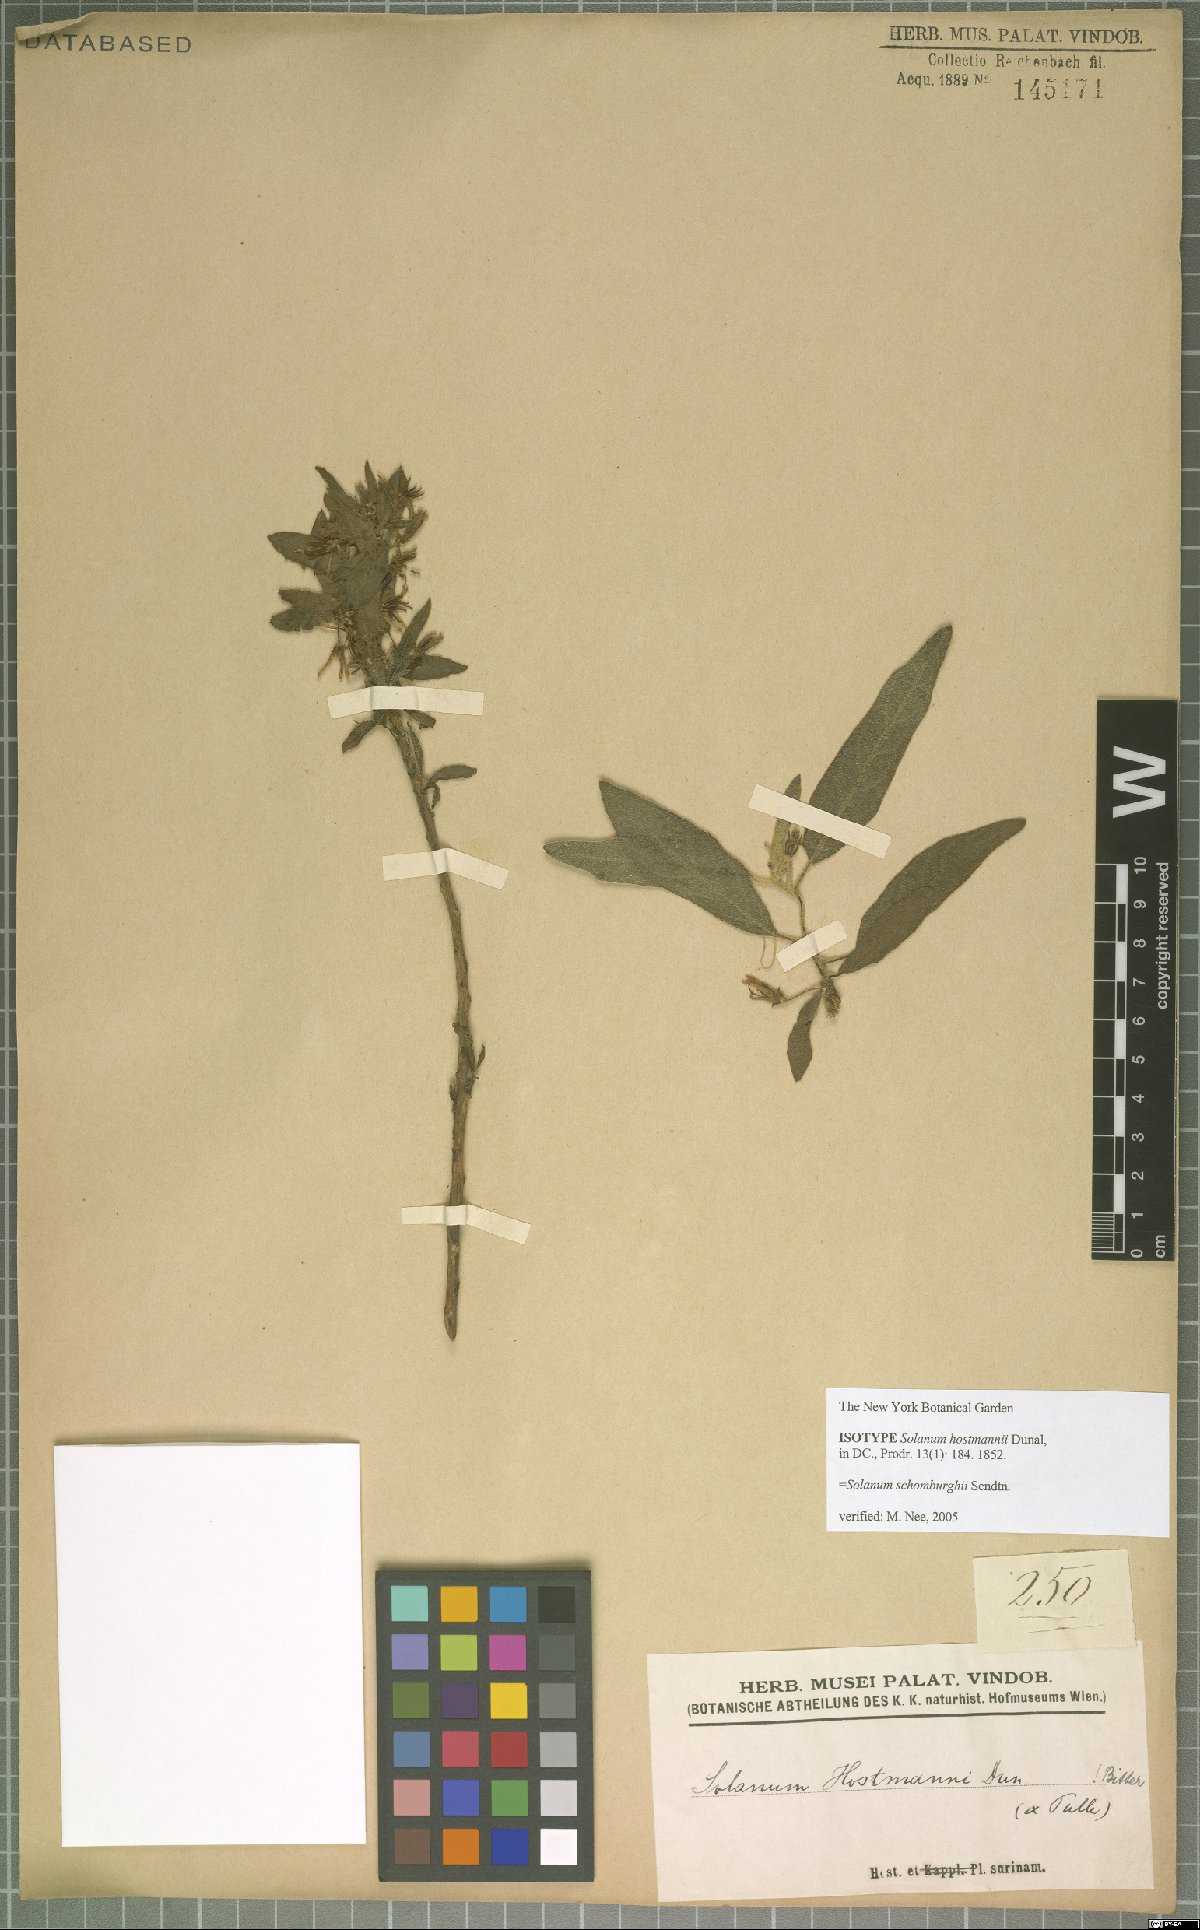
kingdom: Plantae
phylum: Tracheophyta
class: Magnoliopsida
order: Solanales
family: Solanaceae
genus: Solanum
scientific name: Solanum schomburgkii
